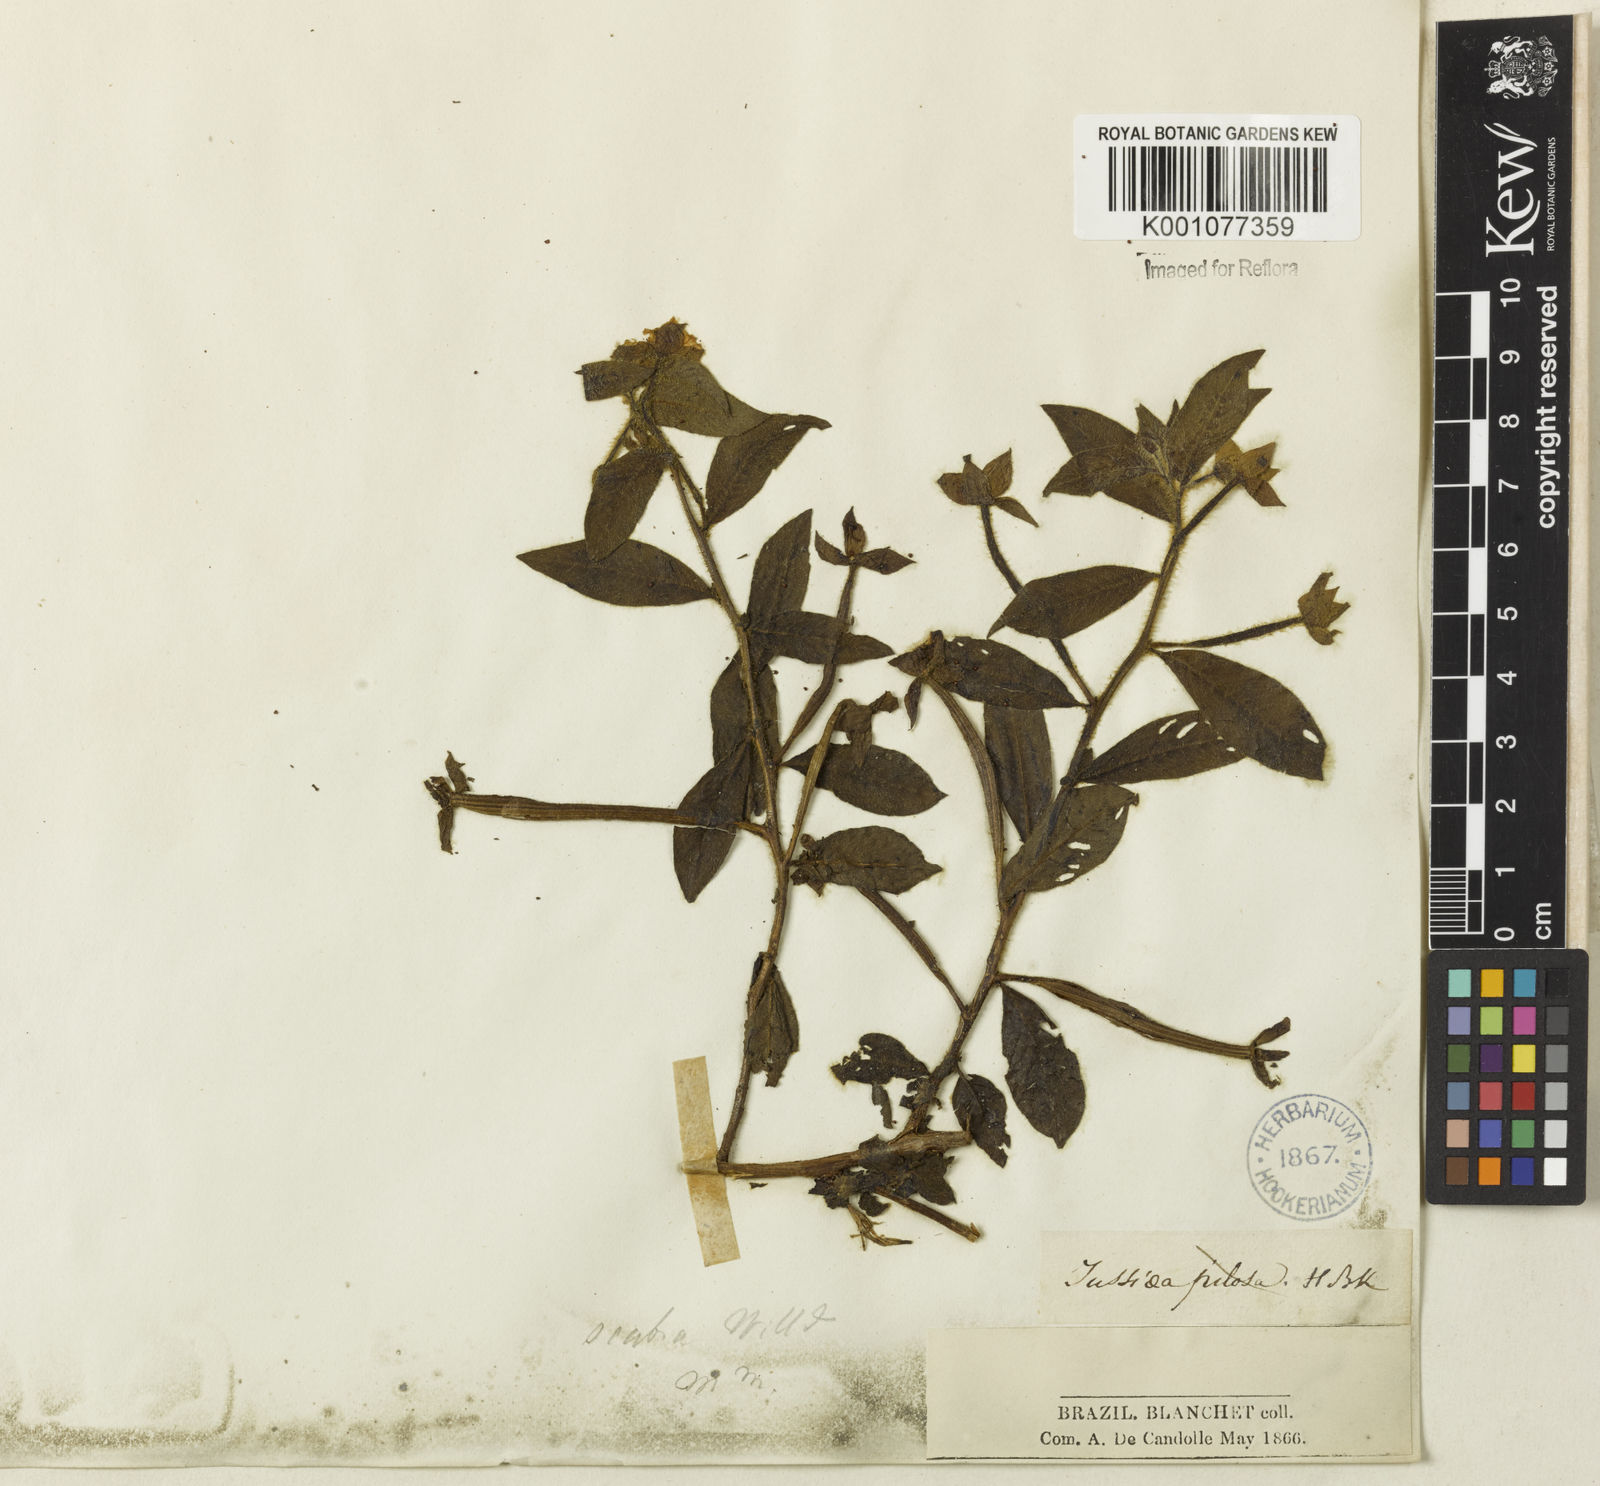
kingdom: Plantae
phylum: Tracheophyta
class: Magnoliopsida
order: Myrtales
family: Onagraceae
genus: Ludwigia
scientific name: Ludwigia octovalvis
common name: Water-primrose
